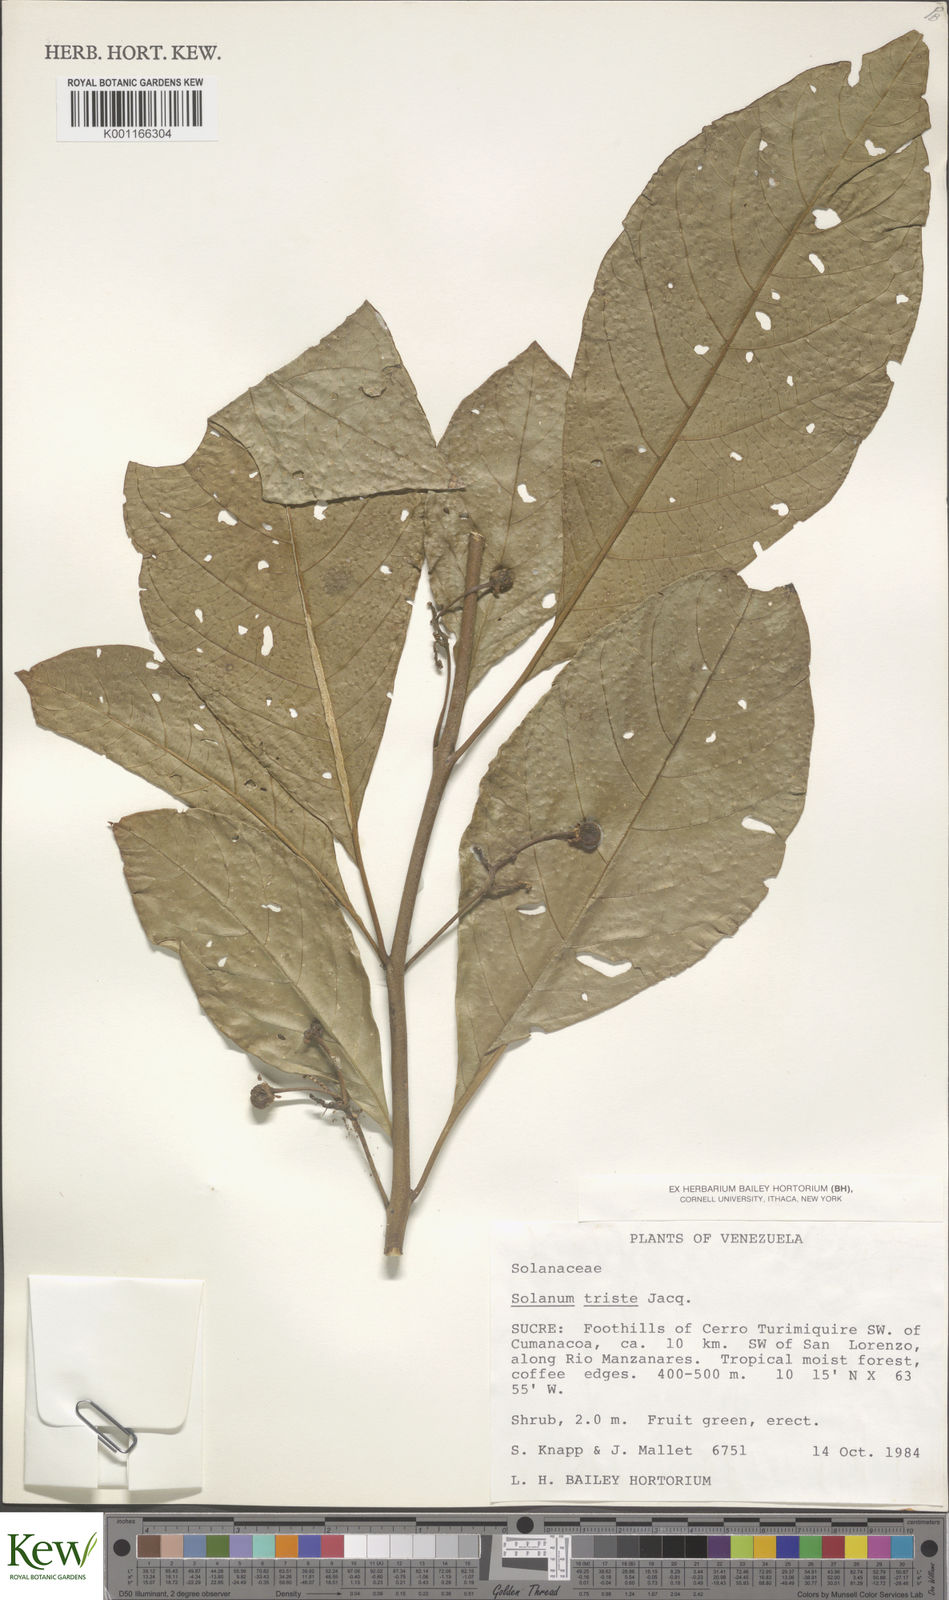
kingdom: Plantae
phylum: Tracheophyta
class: Magnoliopsida
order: Solanales
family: Solanaceae
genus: Solanum
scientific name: Solanum triste
